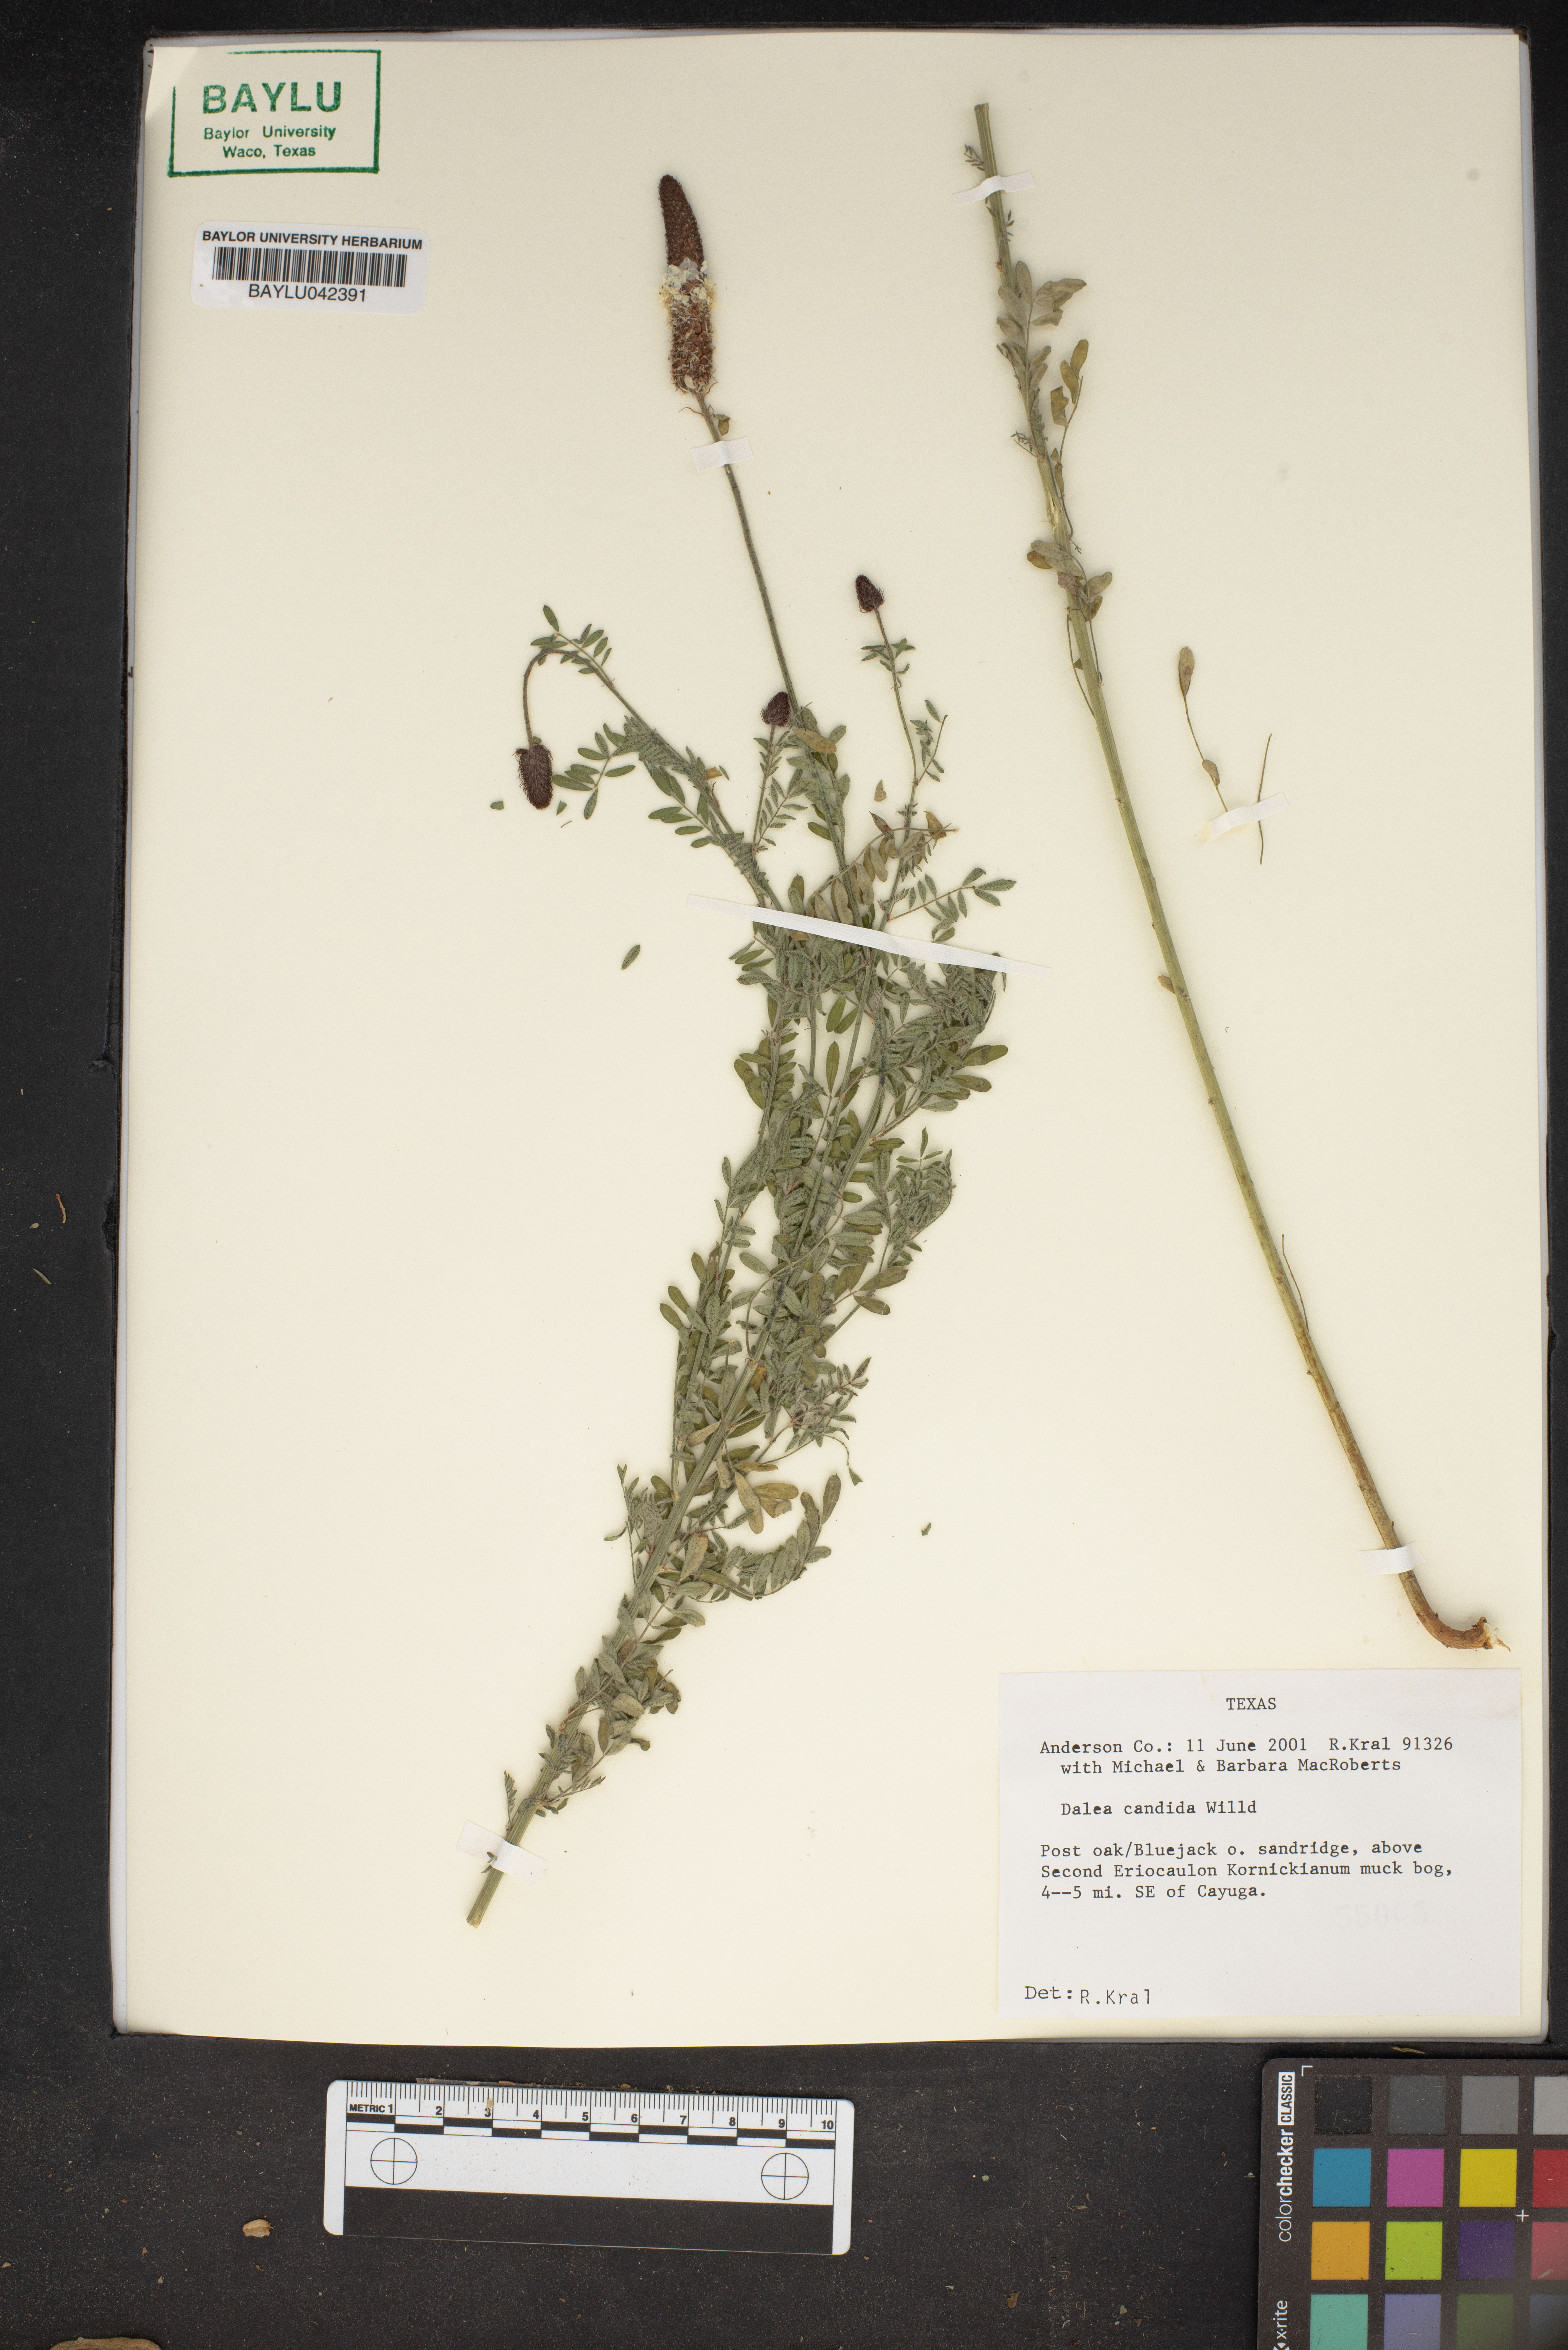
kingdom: Plantae
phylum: Tracheophyta
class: Magnoliopsida
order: Fabales
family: Fabaceae
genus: Dalea
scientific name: Dalea candida
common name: White prairie-clover
